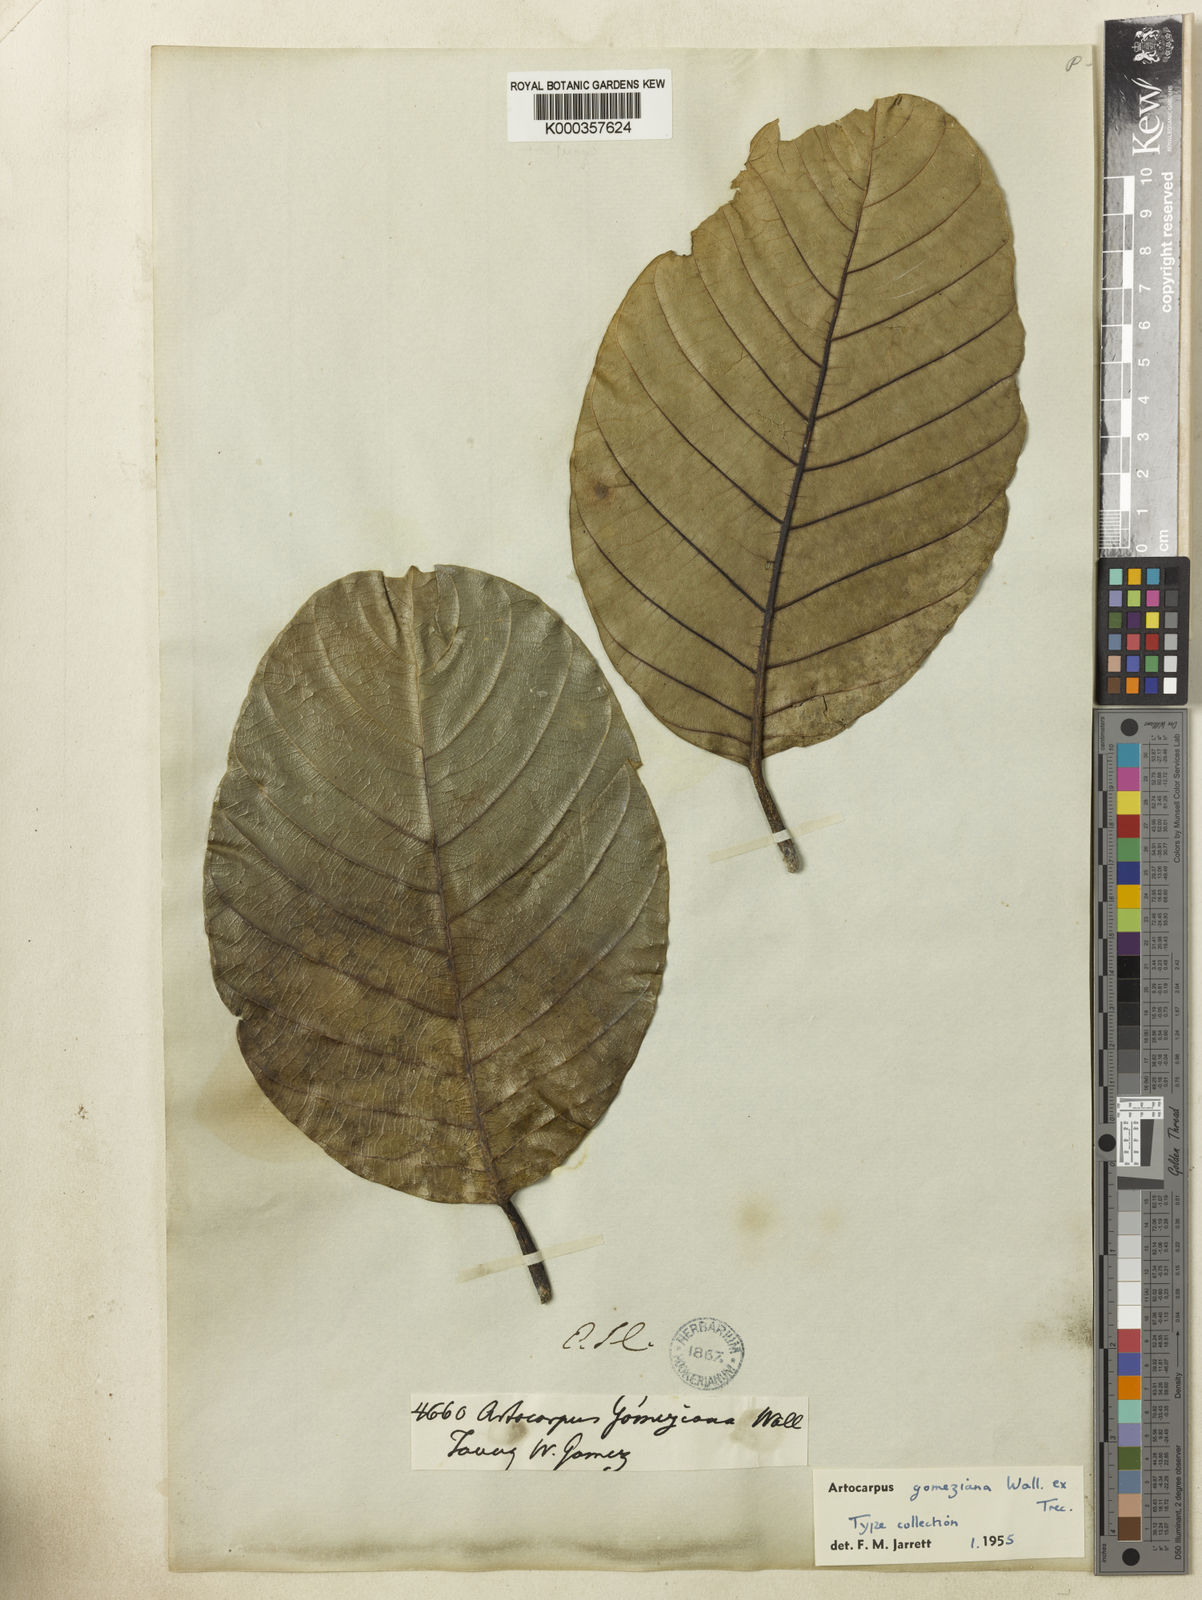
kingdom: Plantae
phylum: Tracheophyta
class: Magnoliopsida
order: Rosales
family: Moraceae
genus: Artocarpus
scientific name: Artocarpus gomezianus
